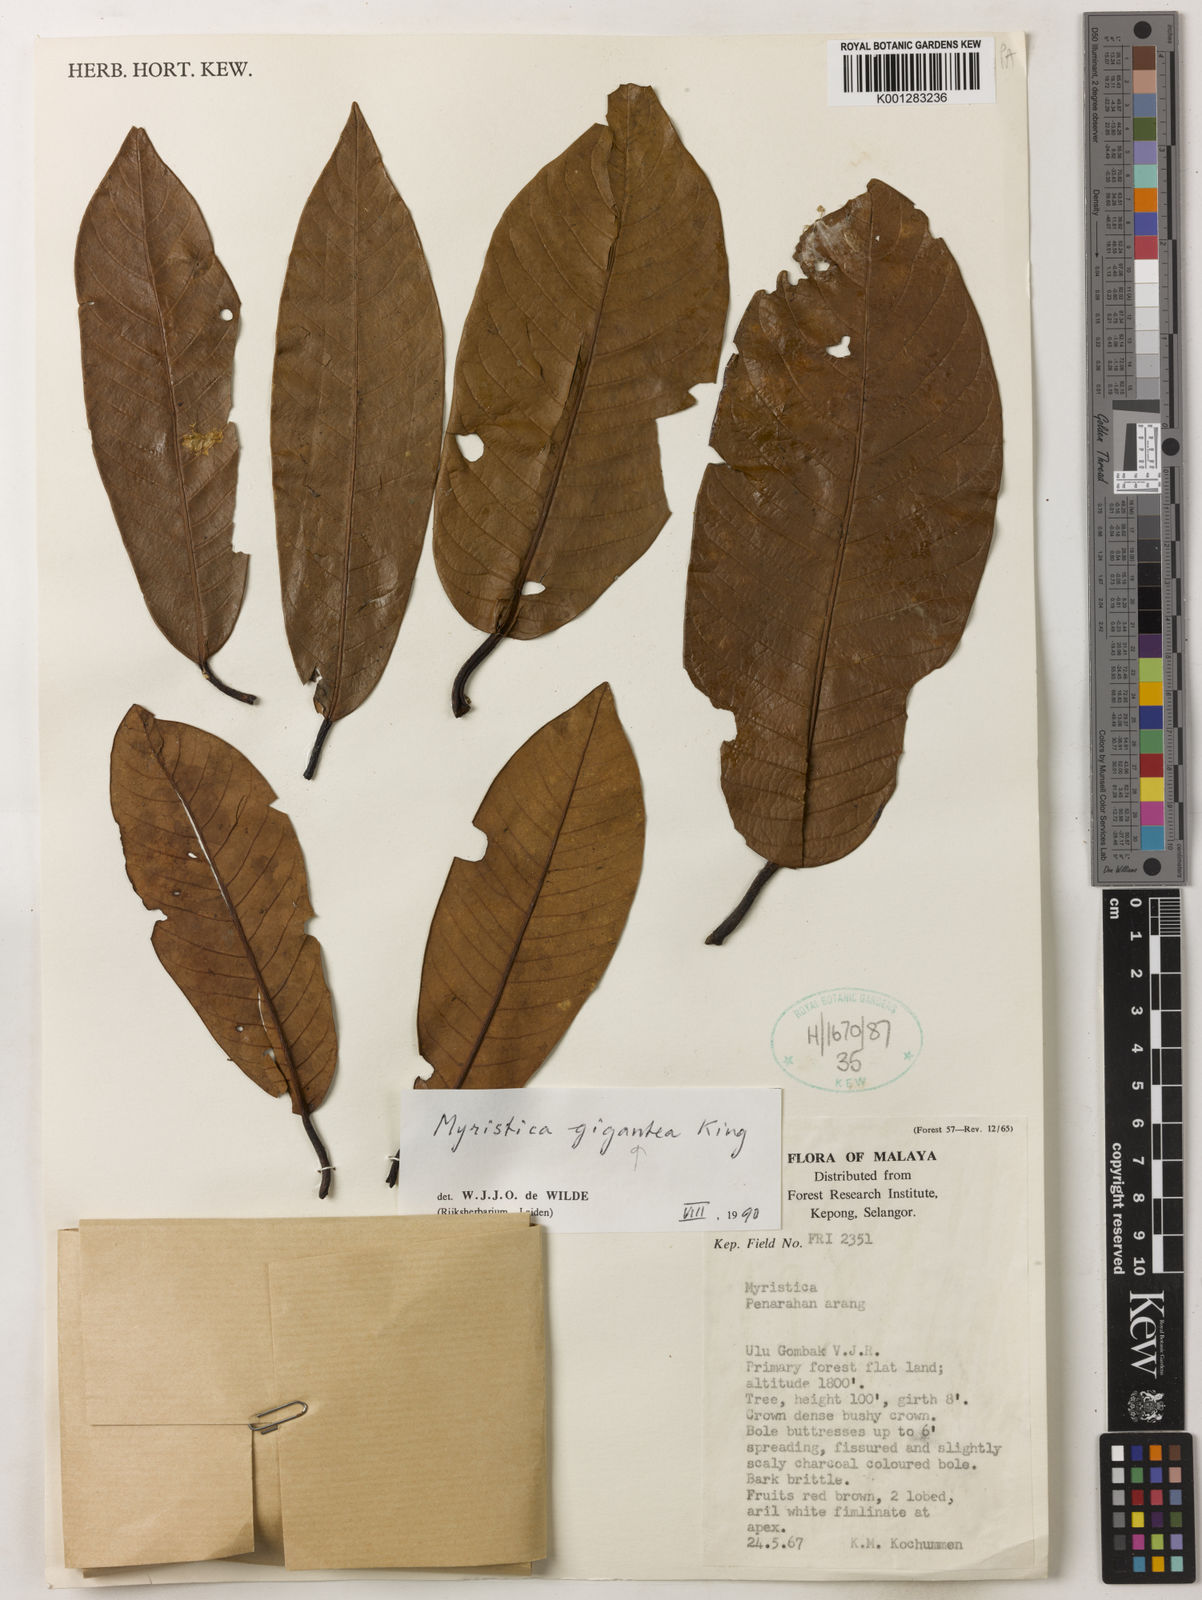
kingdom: Plantae
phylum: Tracheophyta
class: Magnoliopsida
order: Magnoliales
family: Myristicaceae
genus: Myristica
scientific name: Myristica gigantea
